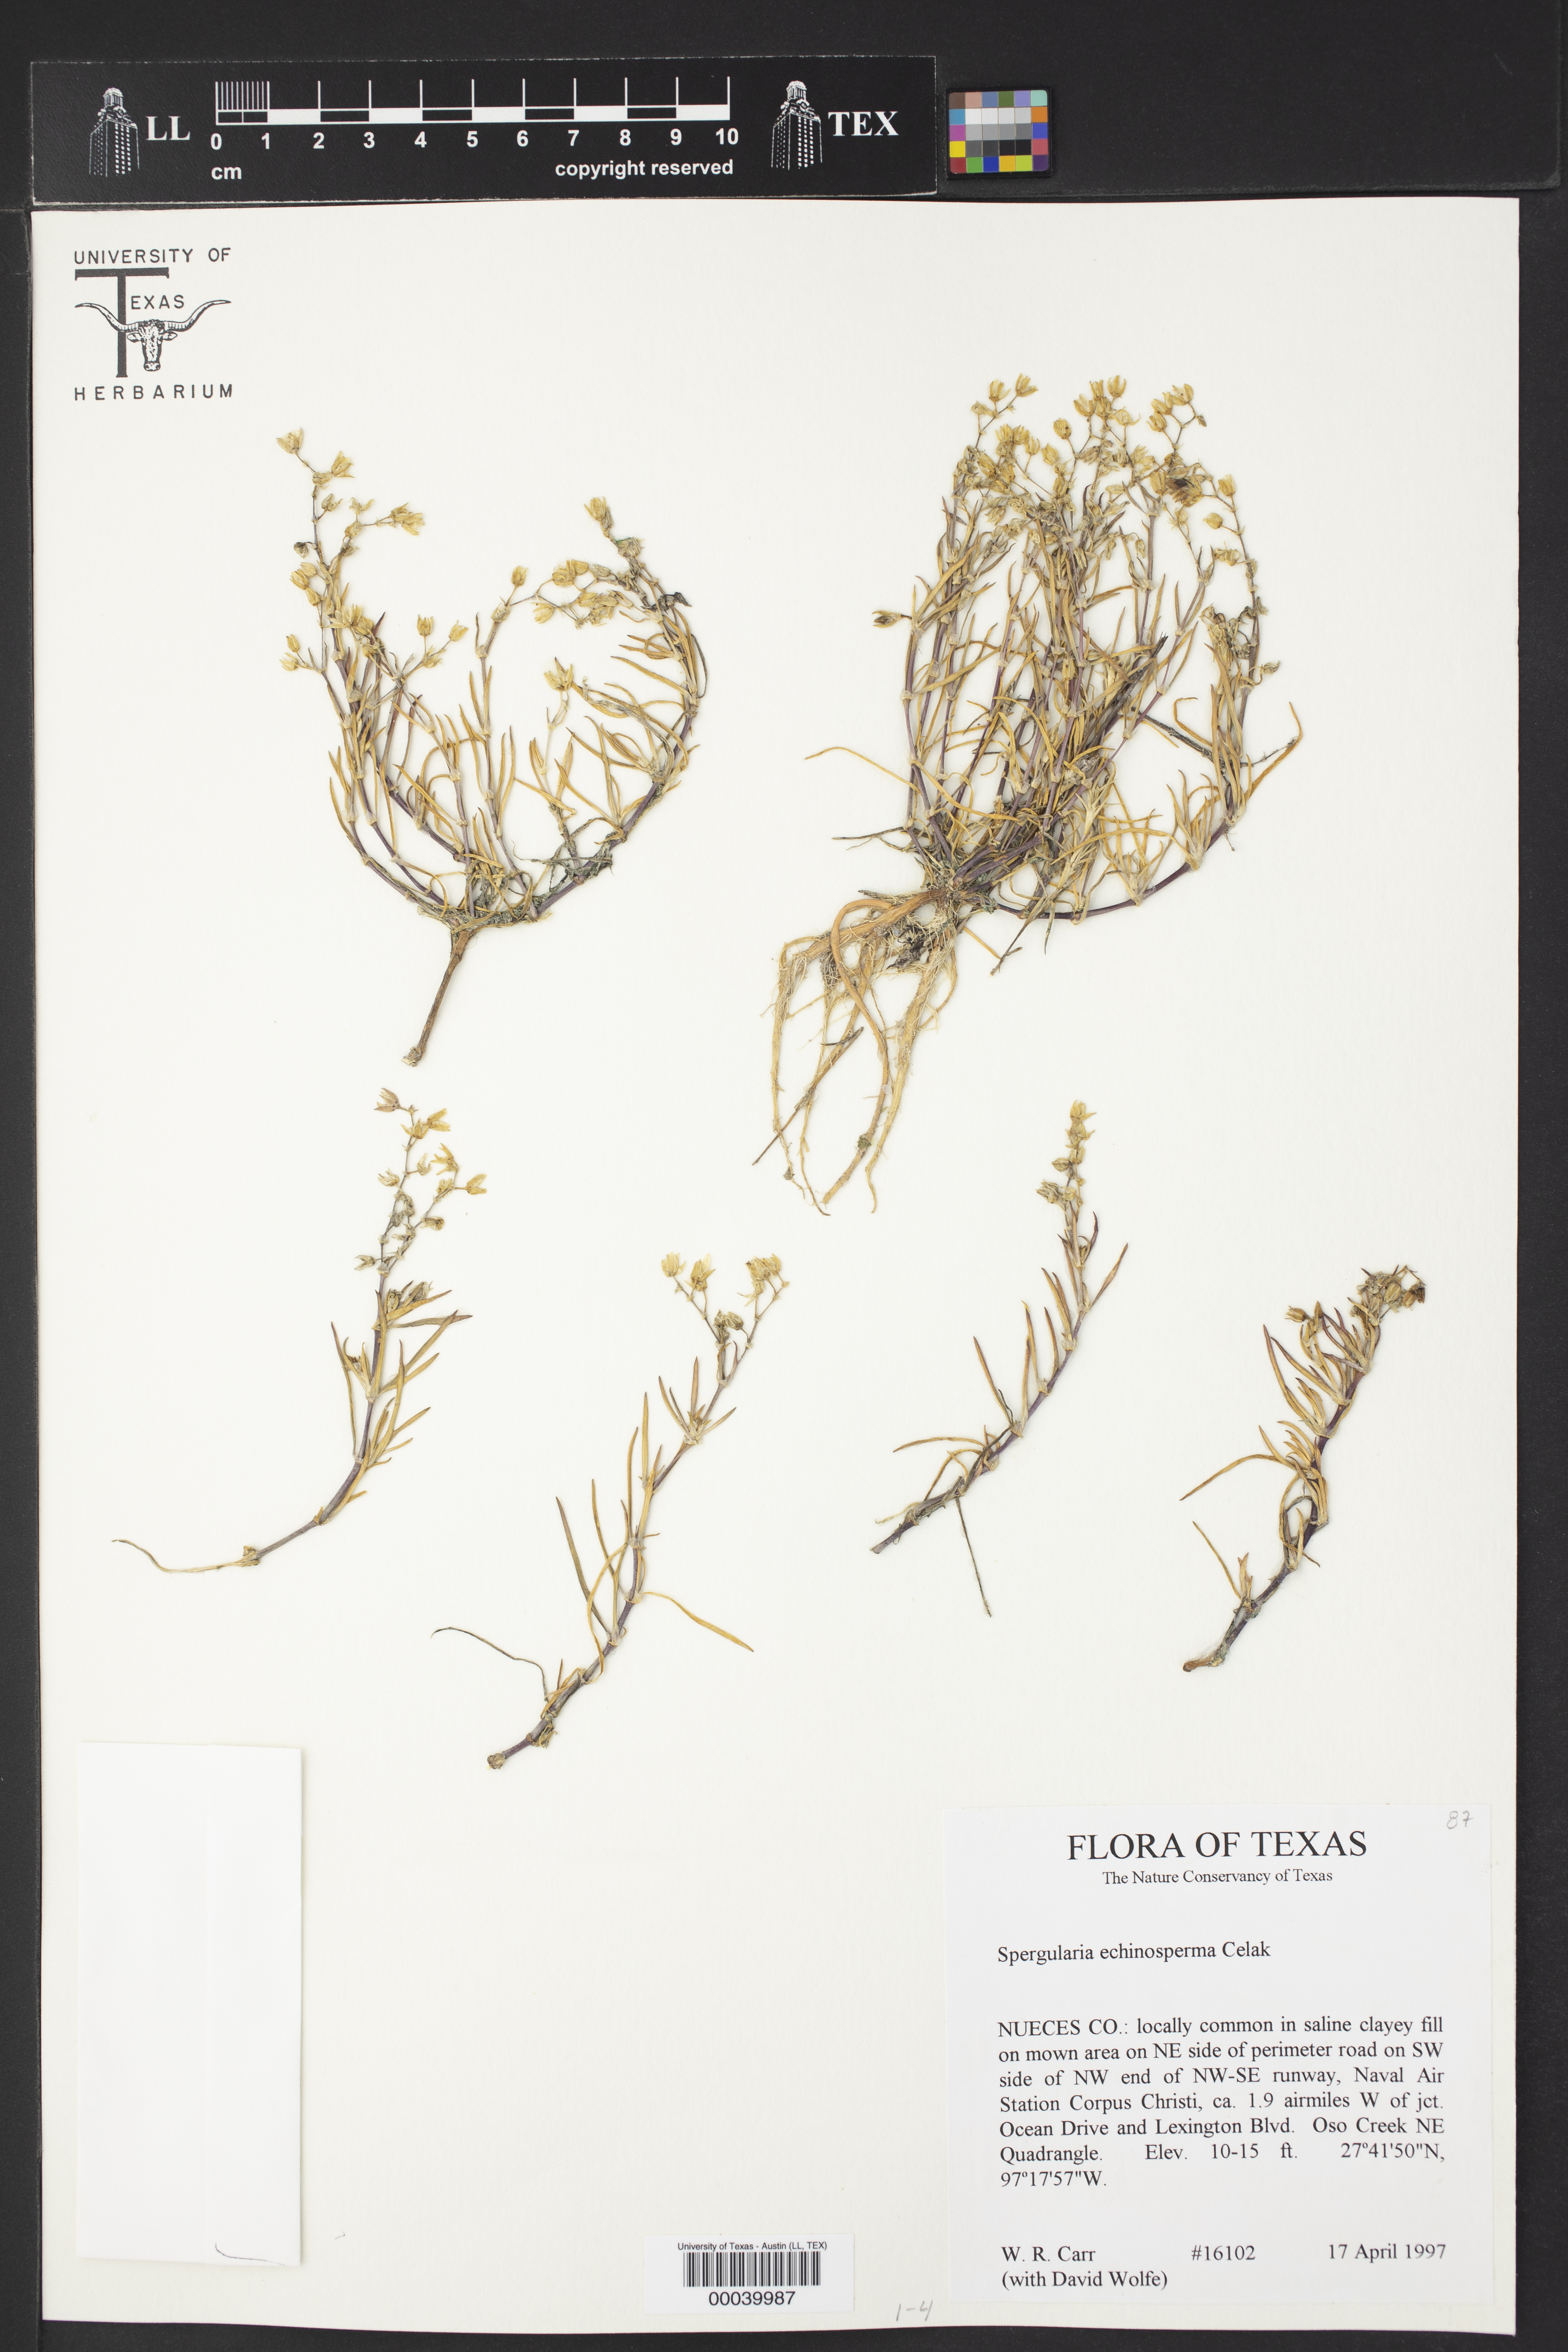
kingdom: Plantae
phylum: Tracheophyta
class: Magnoliopsida
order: Caryophyllales
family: Caryophyllaceae
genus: Spergularia
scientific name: Spergularia echinosperma
